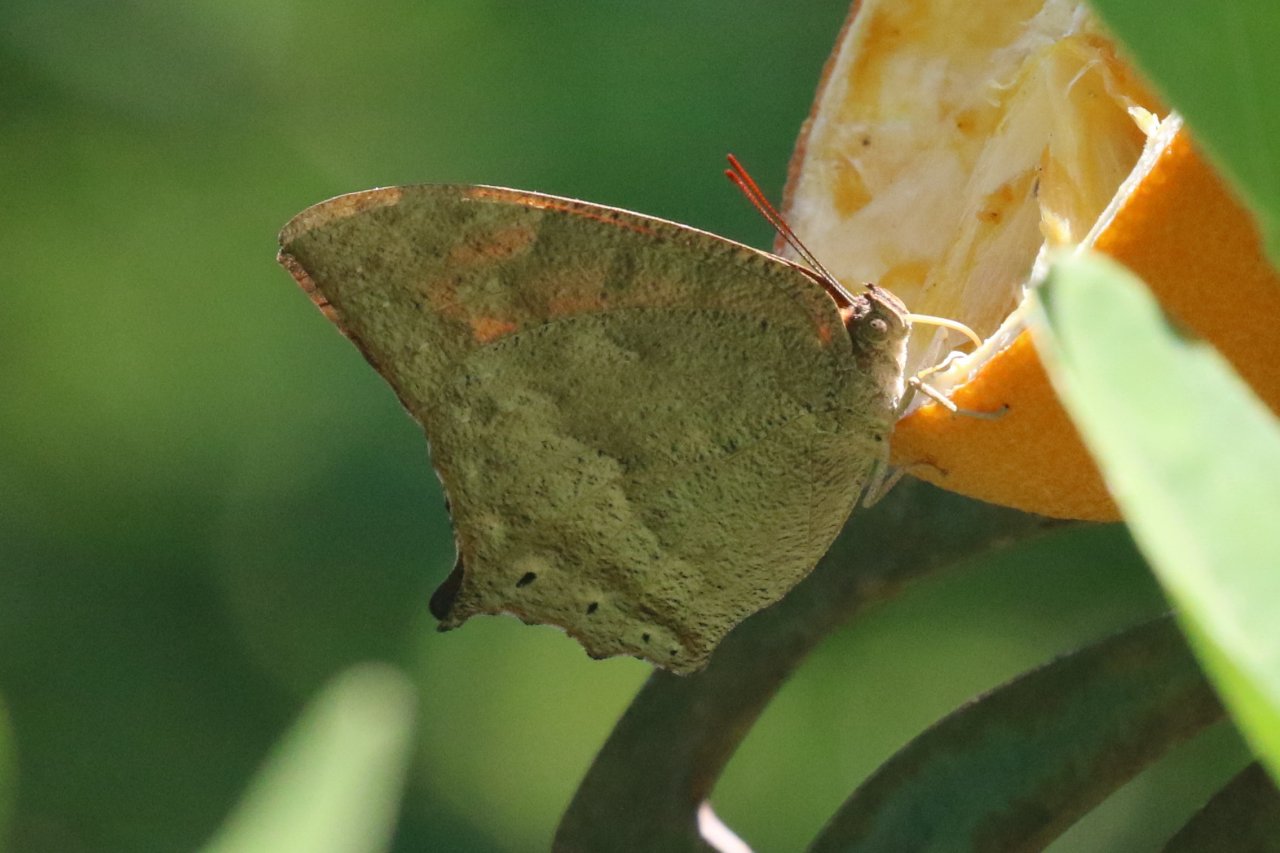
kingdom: Animalia
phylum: Arthropoda
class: Insecta
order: Lepidoptera
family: Nymphalidae
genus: Anaea
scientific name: Anaea aidea
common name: Tropical Leafwing
